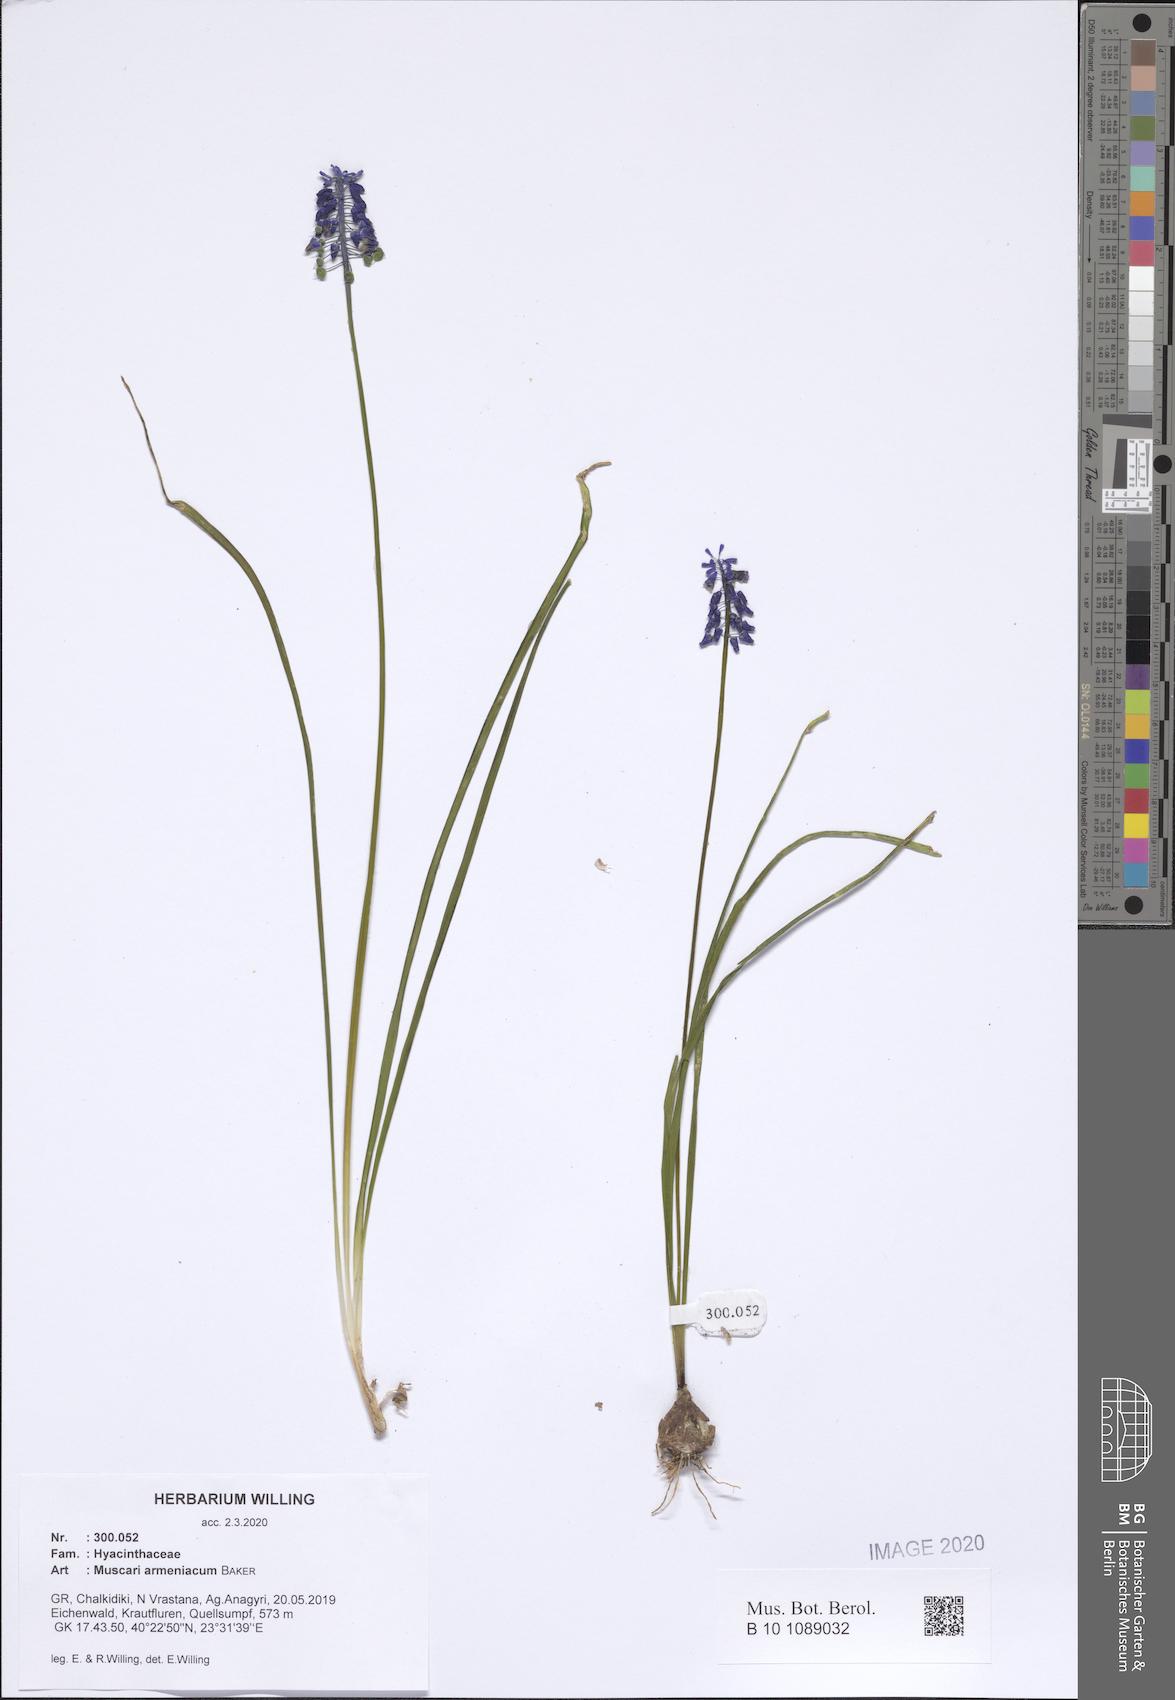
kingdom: Plantae
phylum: Tracheophyta
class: Liliopsida
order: Asparagales
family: Asparagaceae
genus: Muscari
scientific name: Muscari armeniacum
